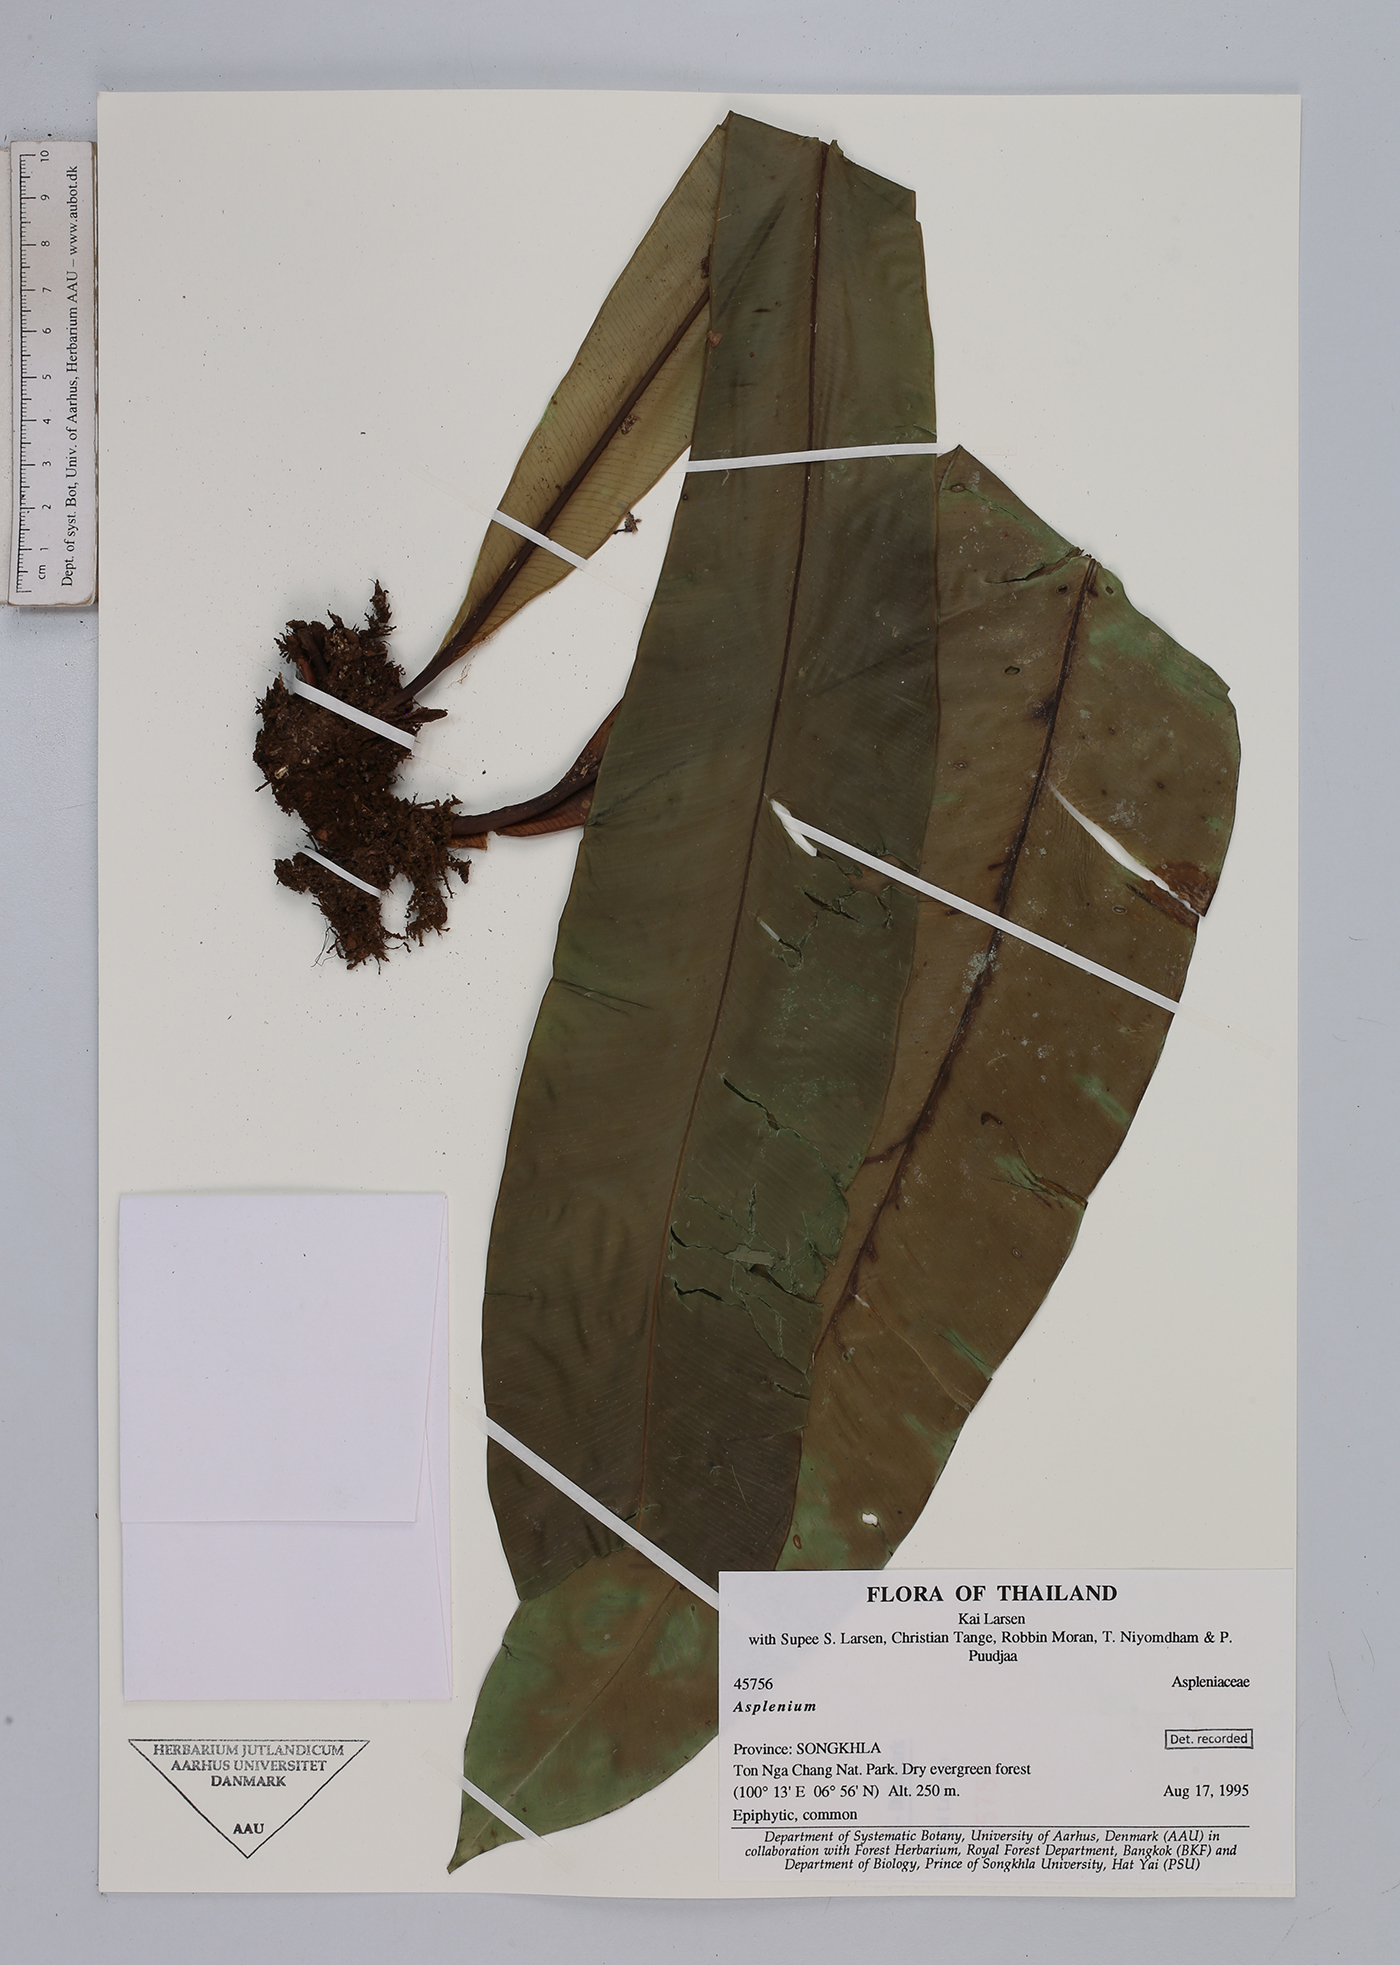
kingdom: Plantae
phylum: Tracheophyta
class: Polypodiopsida
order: Polypodiales
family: Aspleniaceae
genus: Asplenium
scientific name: Asplenium
